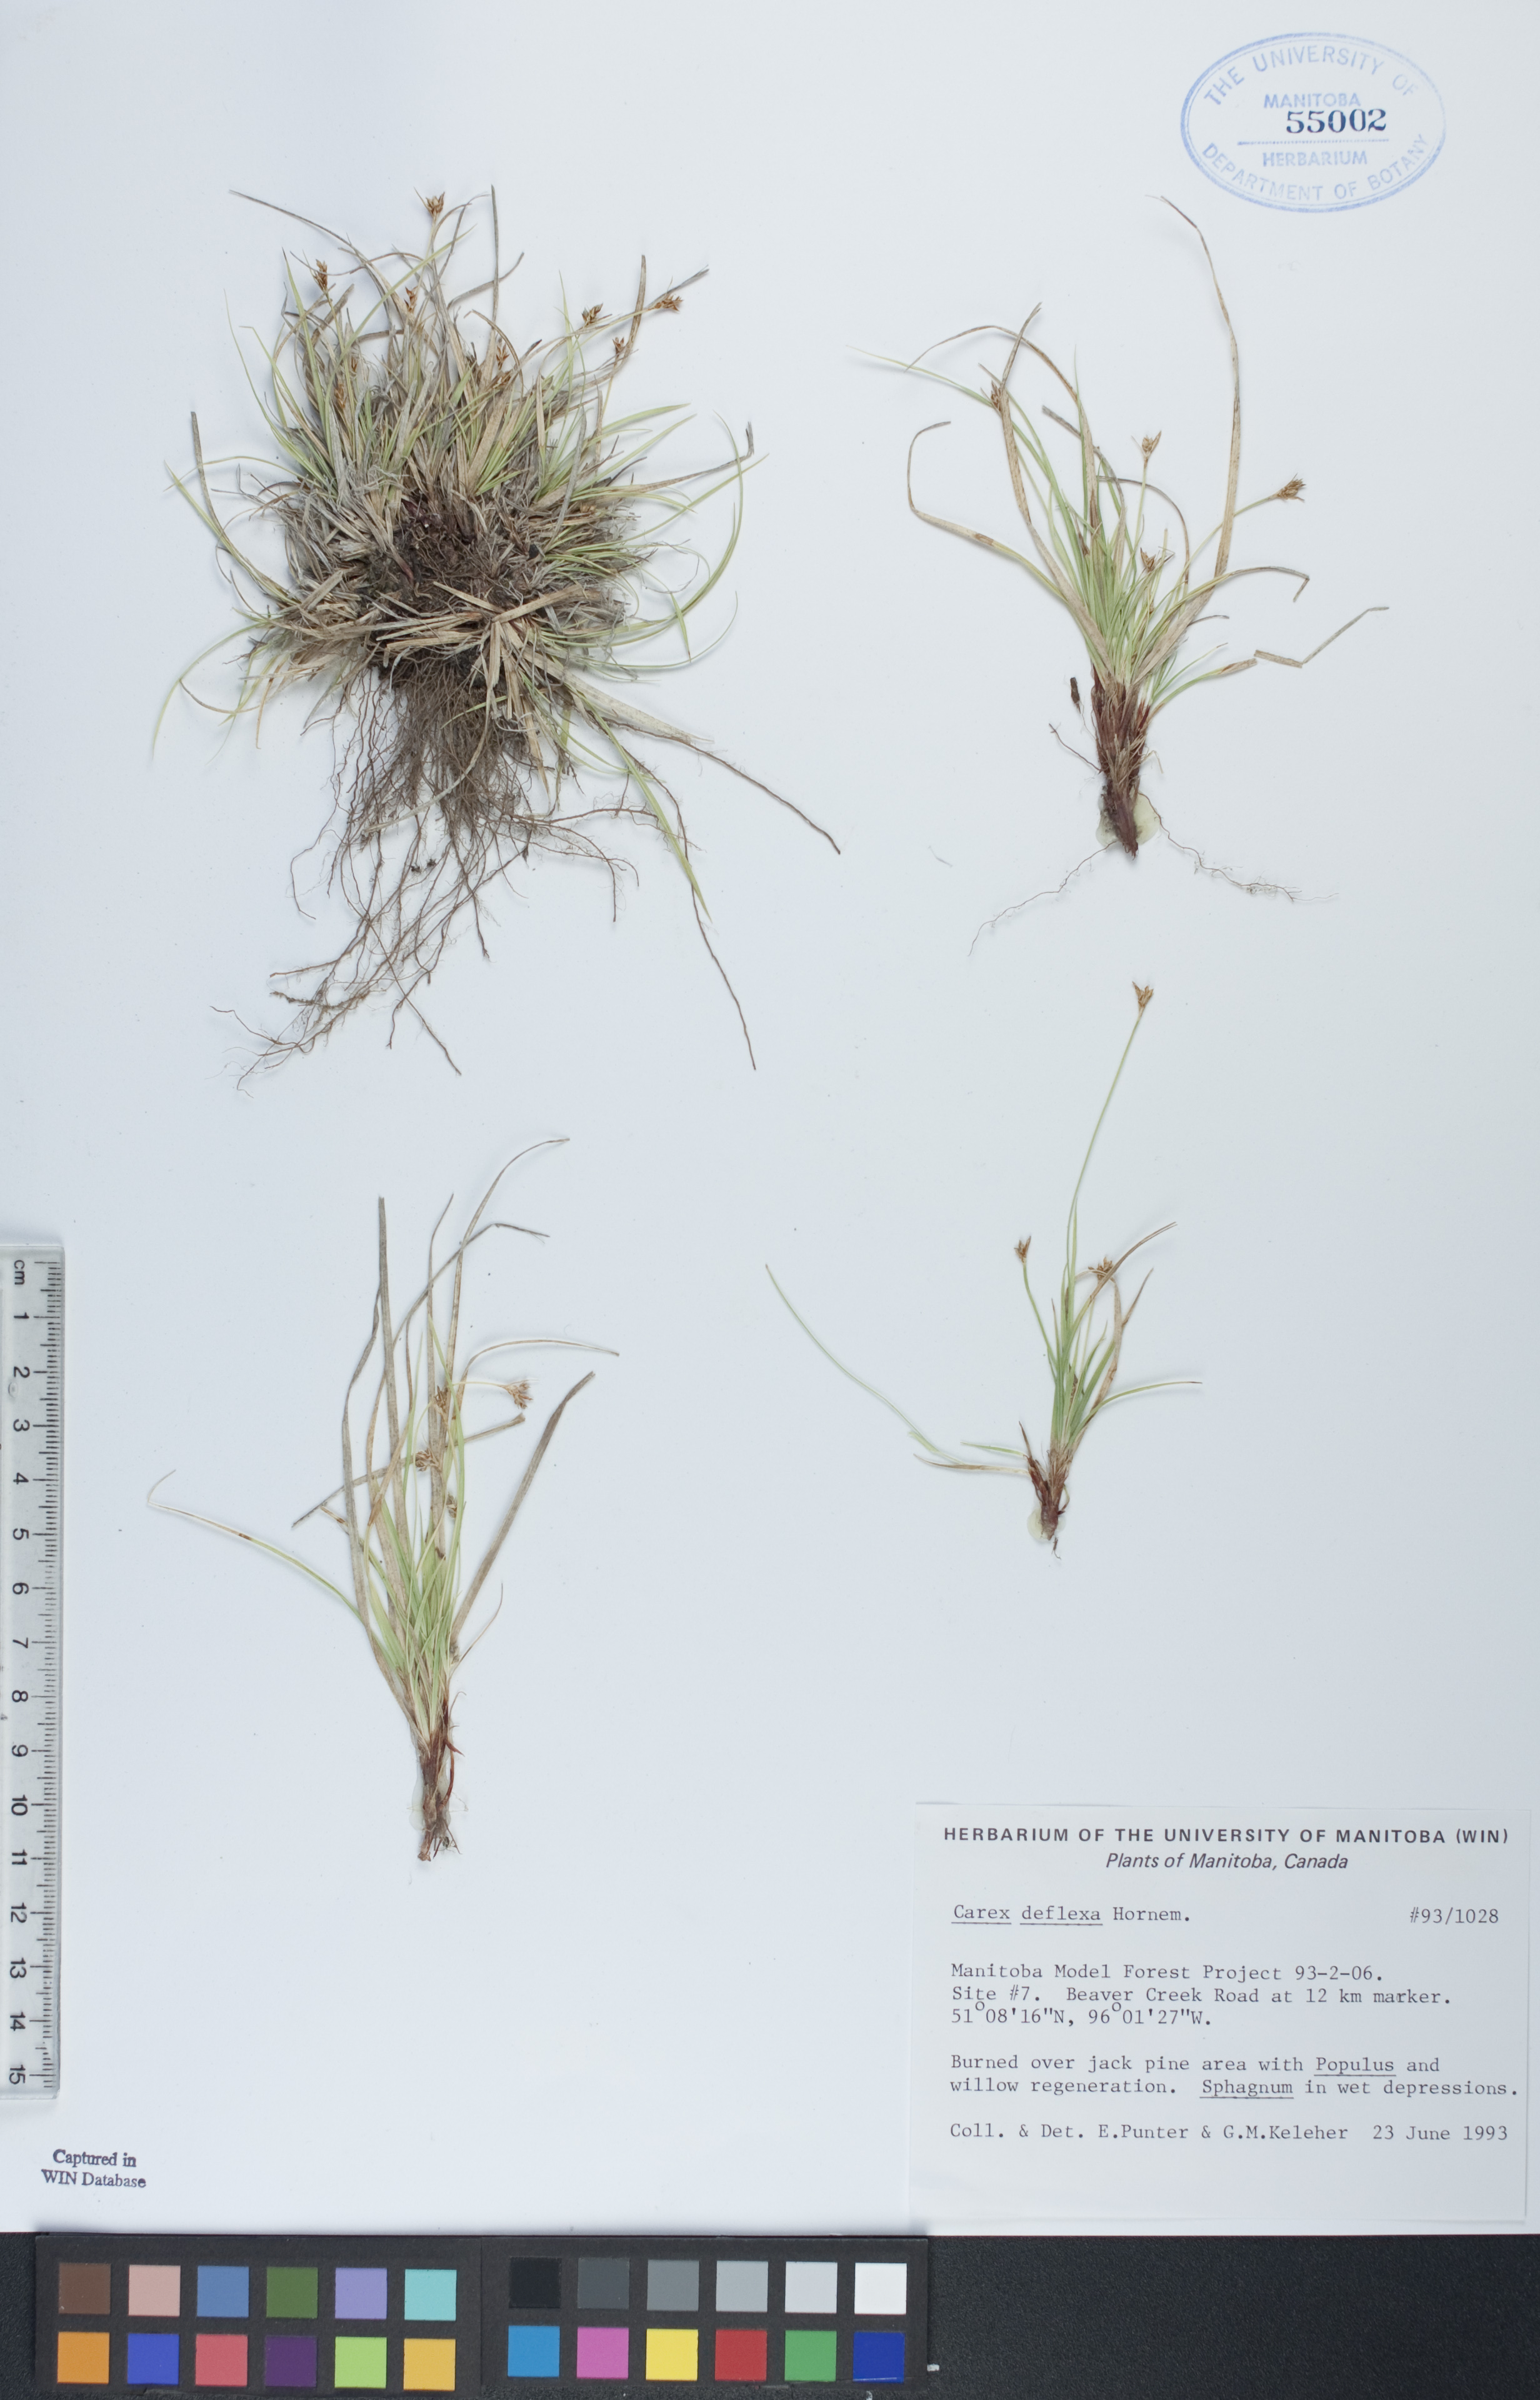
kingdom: Plantae
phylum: Tracheophyta
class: Liliopsida
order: Poales
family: Cyperaceae
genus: Carex
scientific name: Carex deflexa
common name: Bent northern sedge
